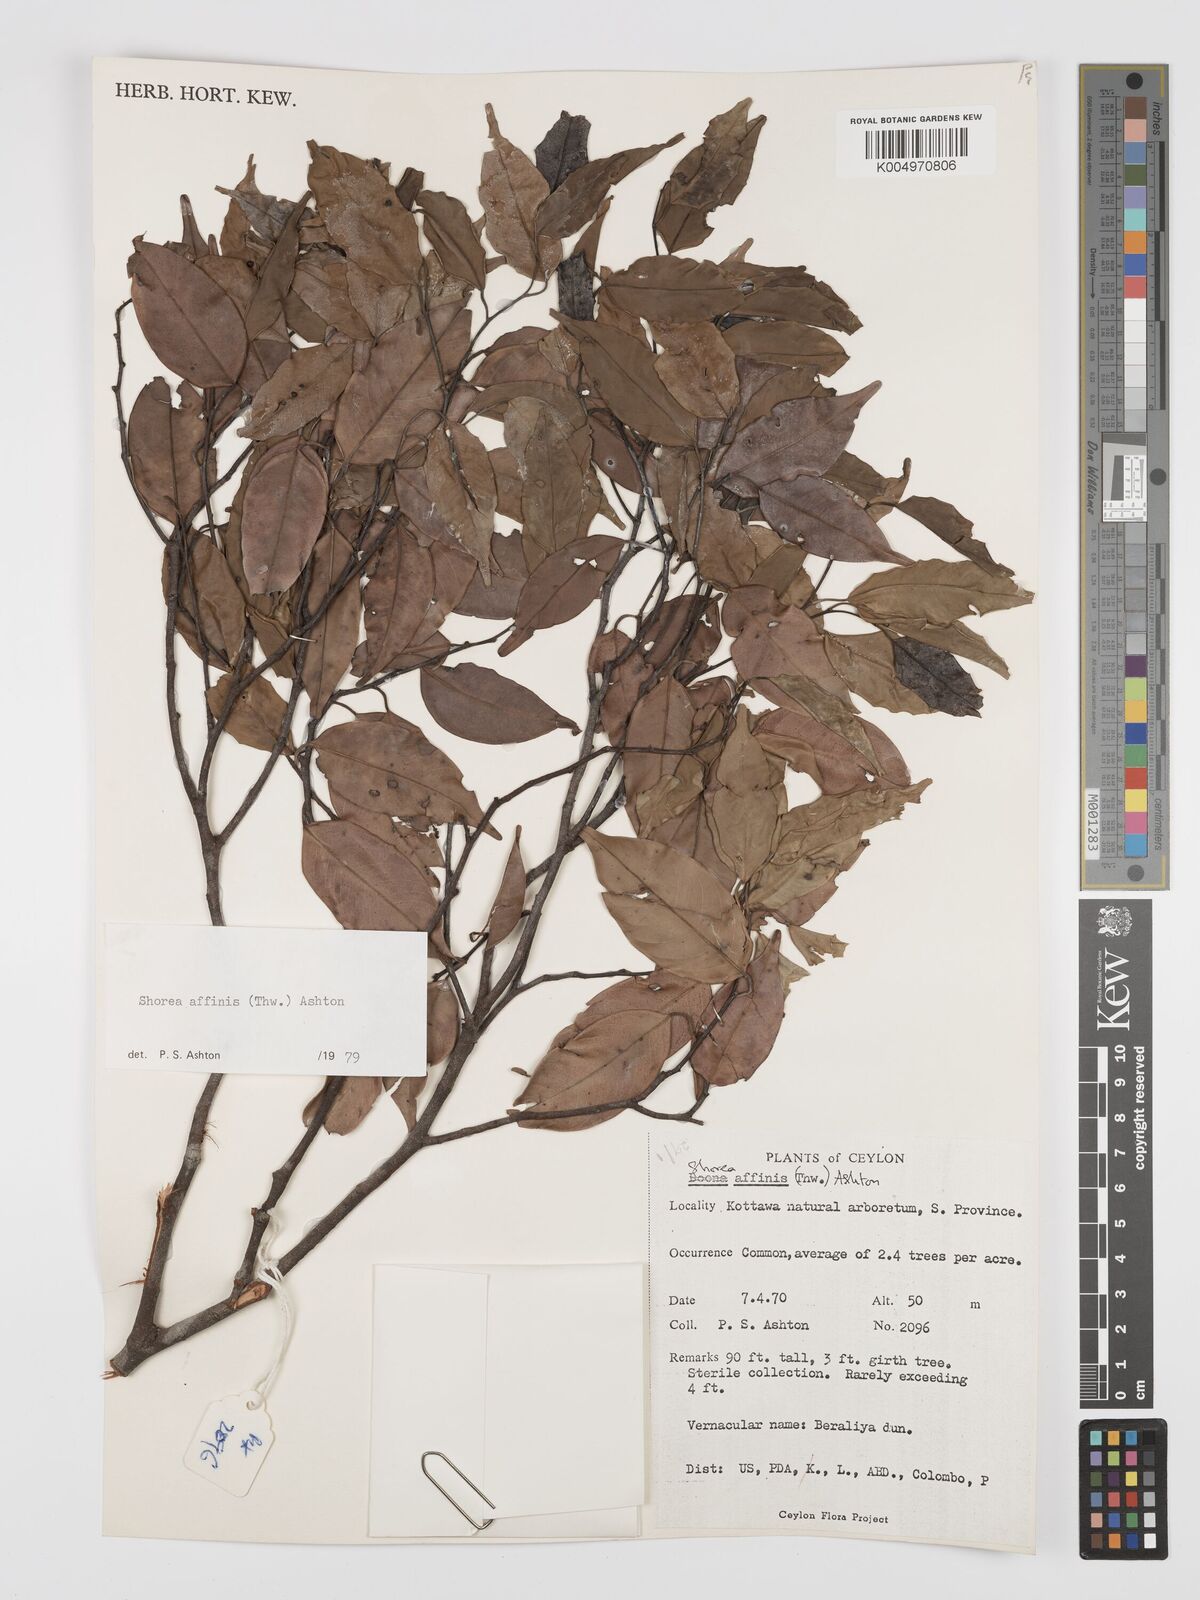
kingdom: Plantae
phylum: Tracheophyta
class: Magnoliopsida
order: Malvales
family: Dipterocarpaceae
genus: Doona
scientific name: Doona affinis
